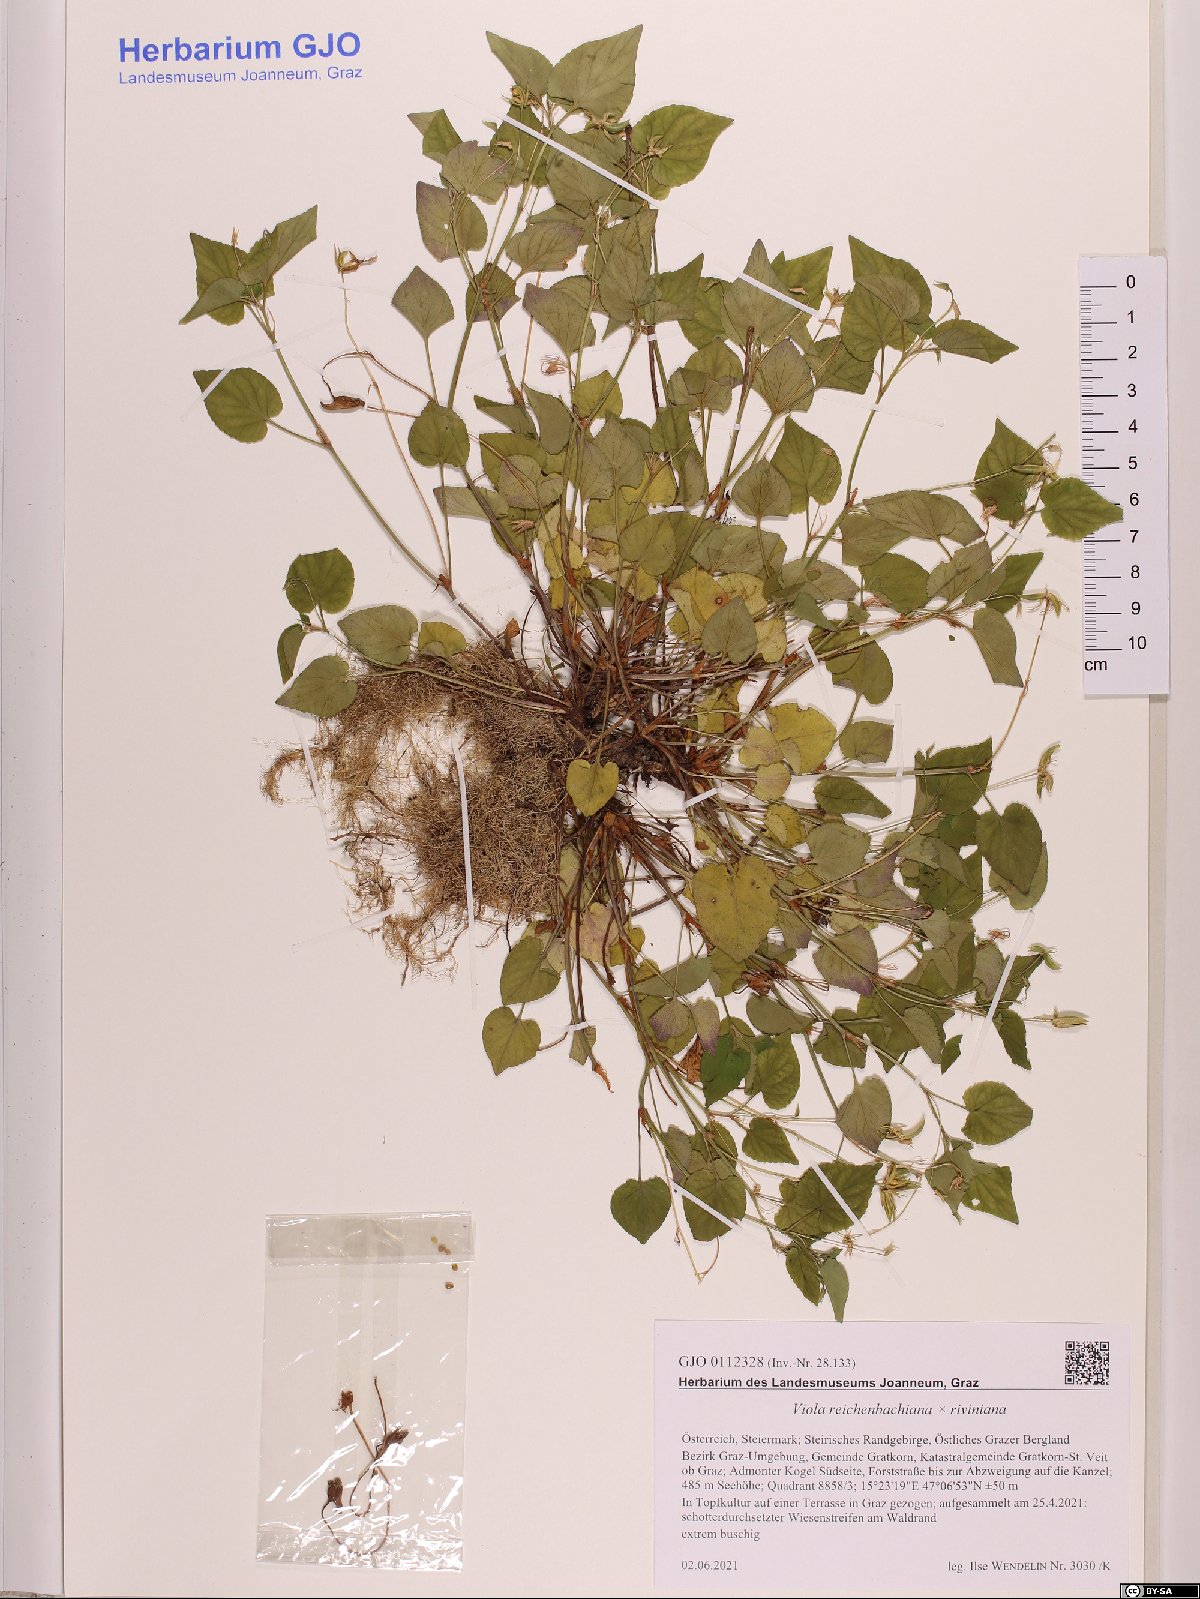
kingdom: Plantae
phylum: Tracheophyta
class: Magnoliopsida
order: Malpighiales
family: Violaceae
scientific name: Violaceae
